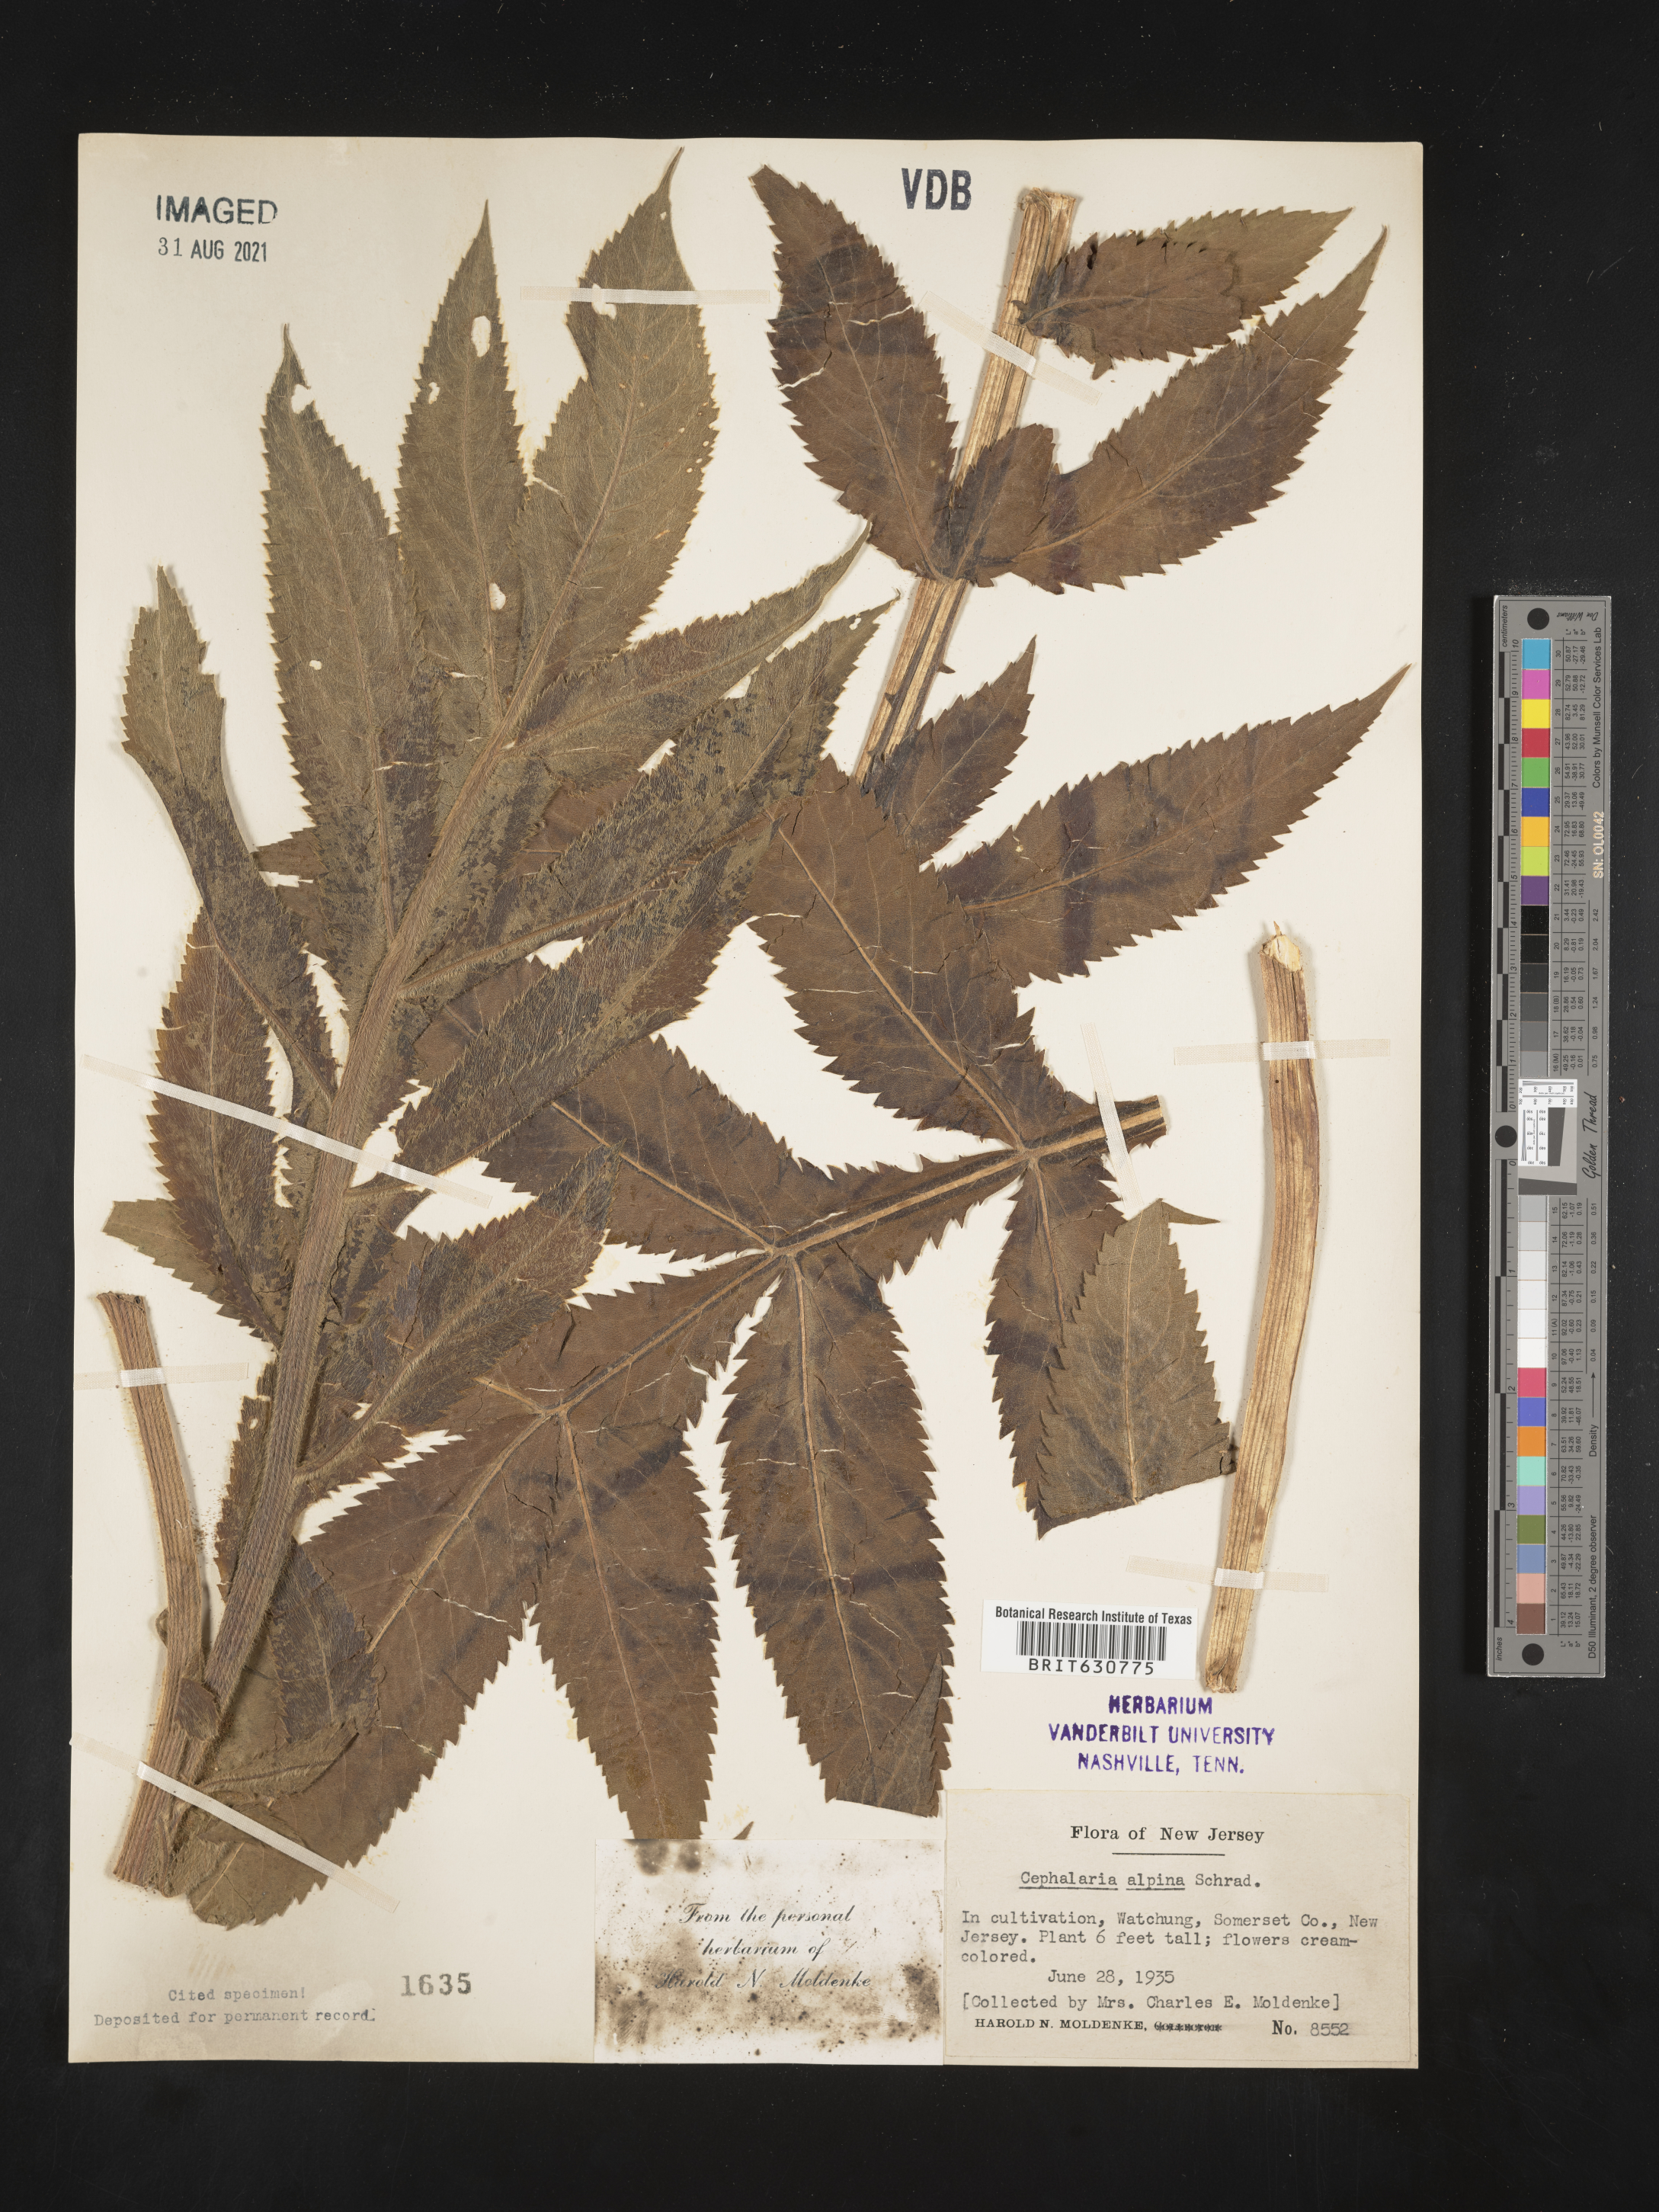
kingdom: Plantae
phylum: Tracheophyta
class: Magnoliopsida
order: Dipsacales
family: Caprifoliaceae
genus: Cephalaria
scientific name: Cephalaria alpina
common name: Alpine-scabious
